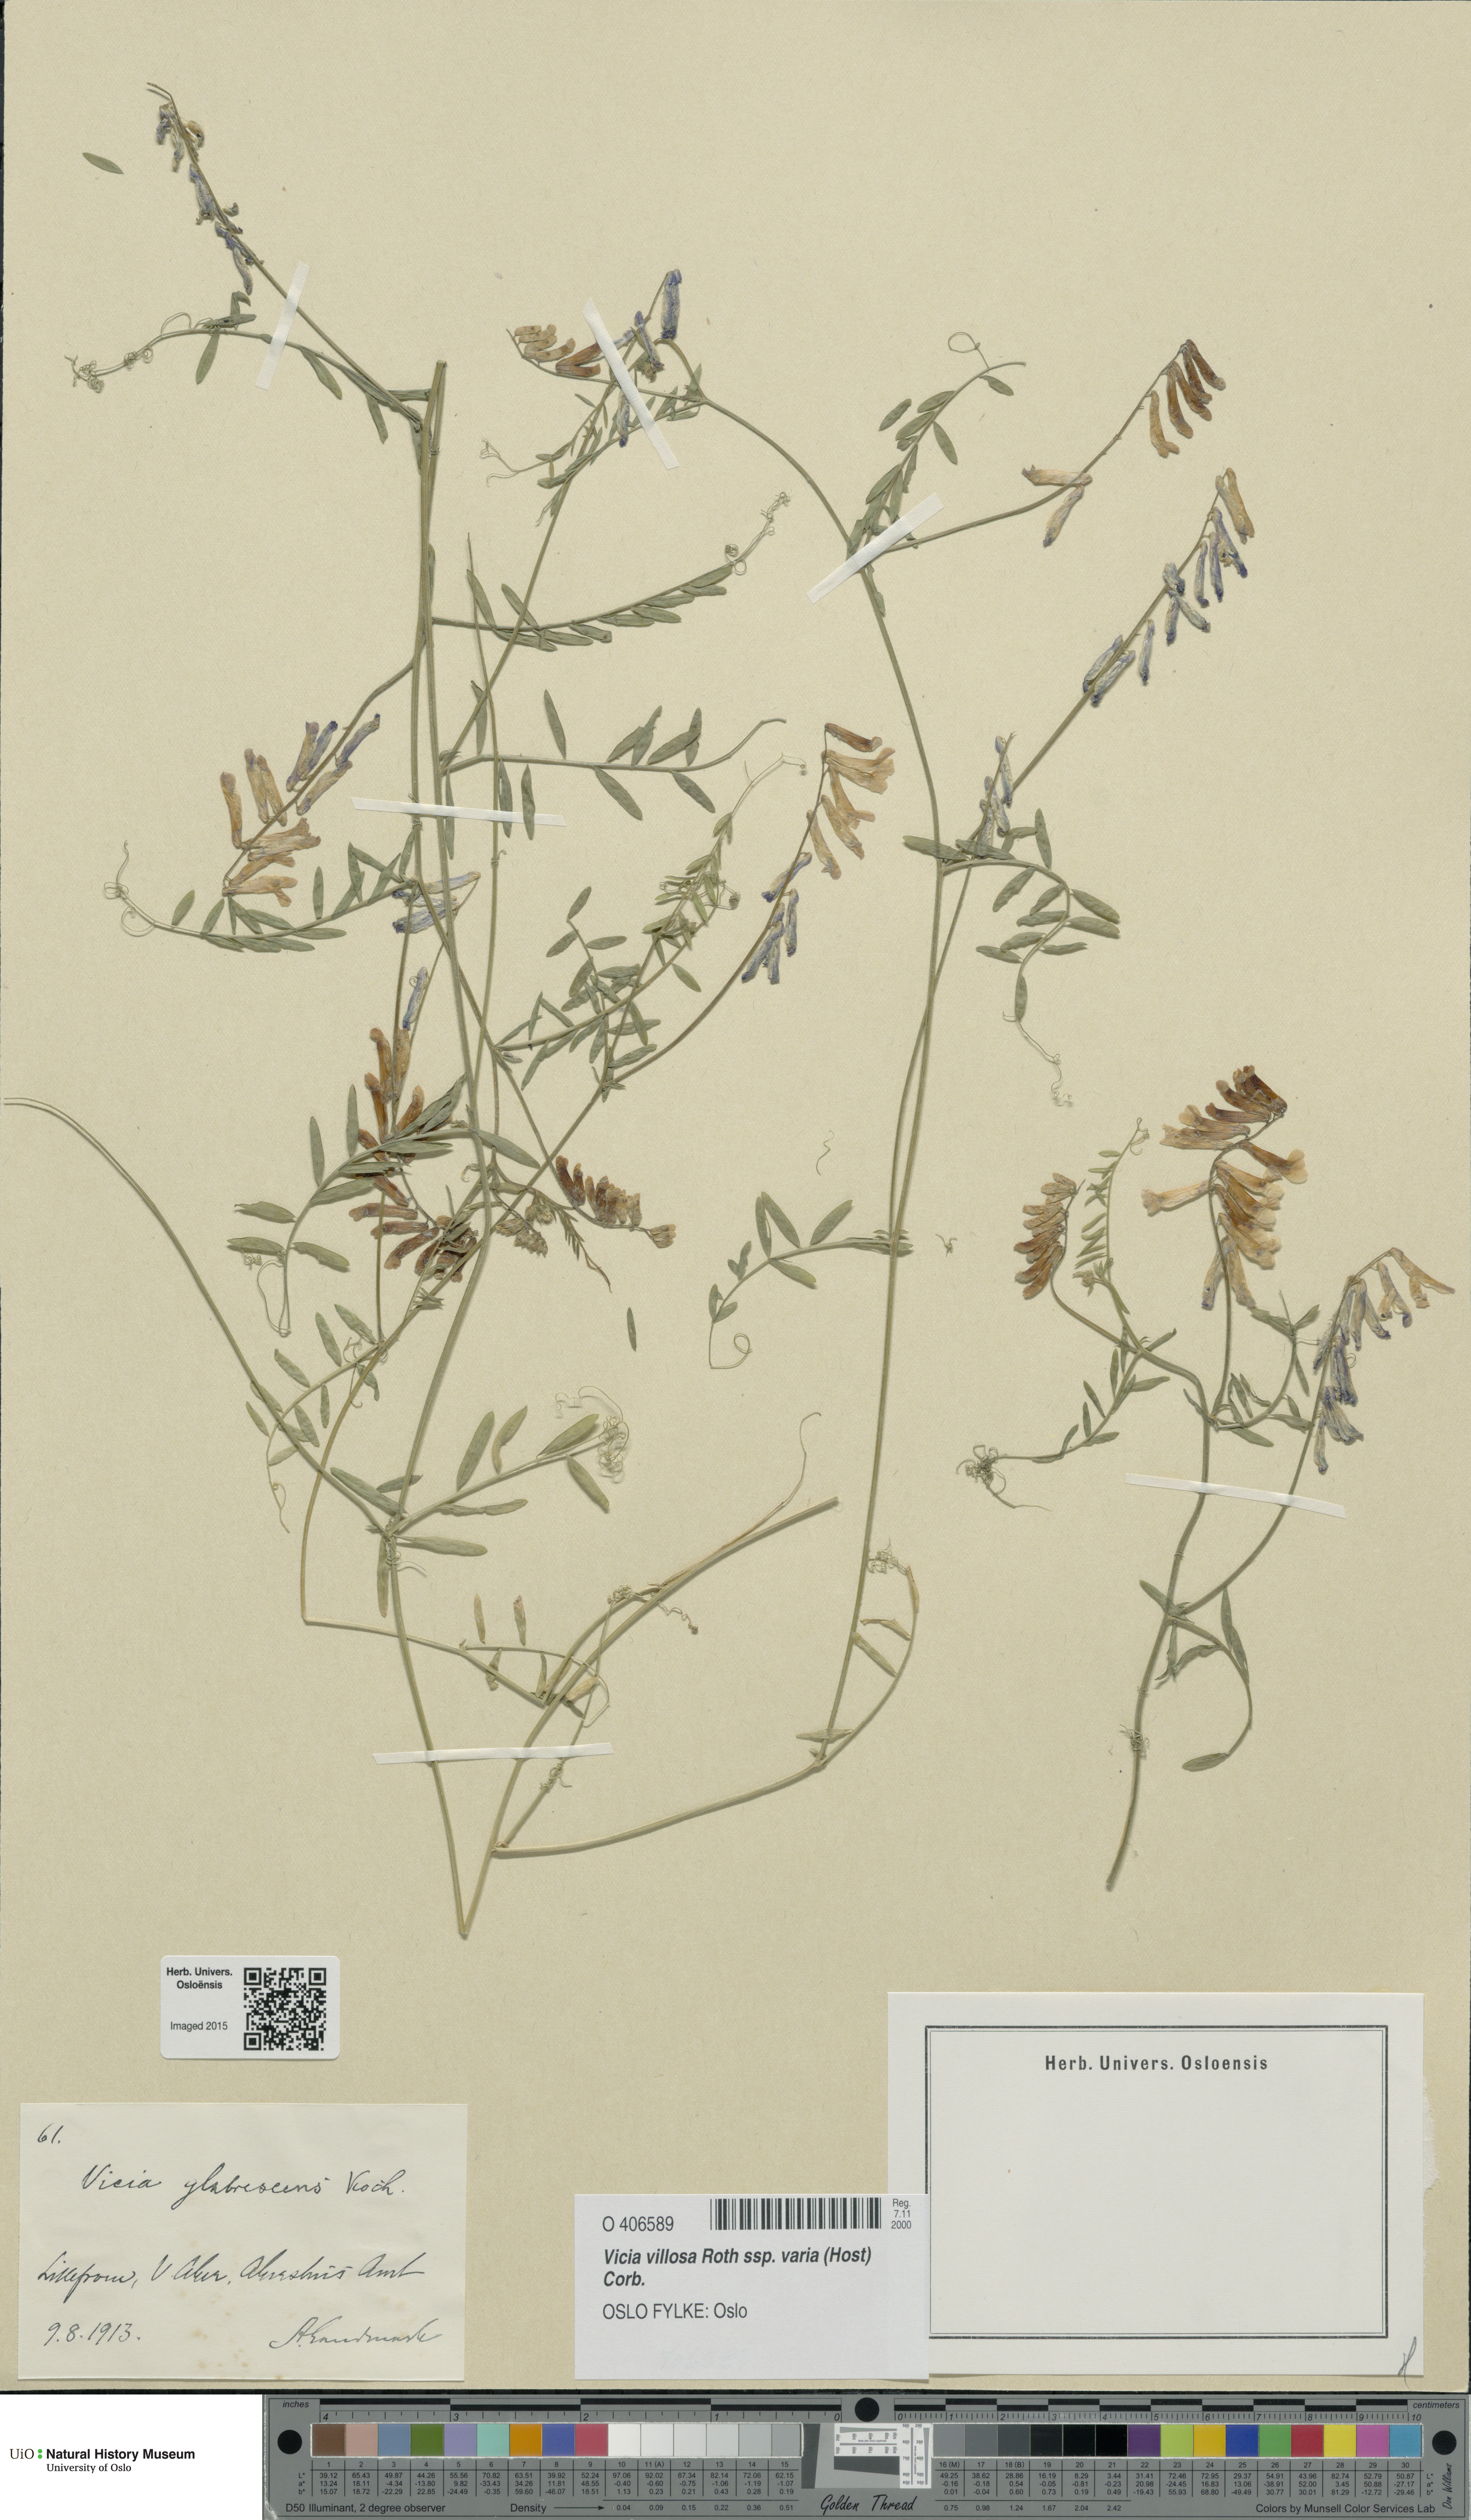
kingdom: Plantae
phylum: Tracheophyta
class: Magnoliopsida
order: Fabales
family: Fabaceae
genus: Vicia
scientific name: Vicia villosa
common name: Fodder vetch
